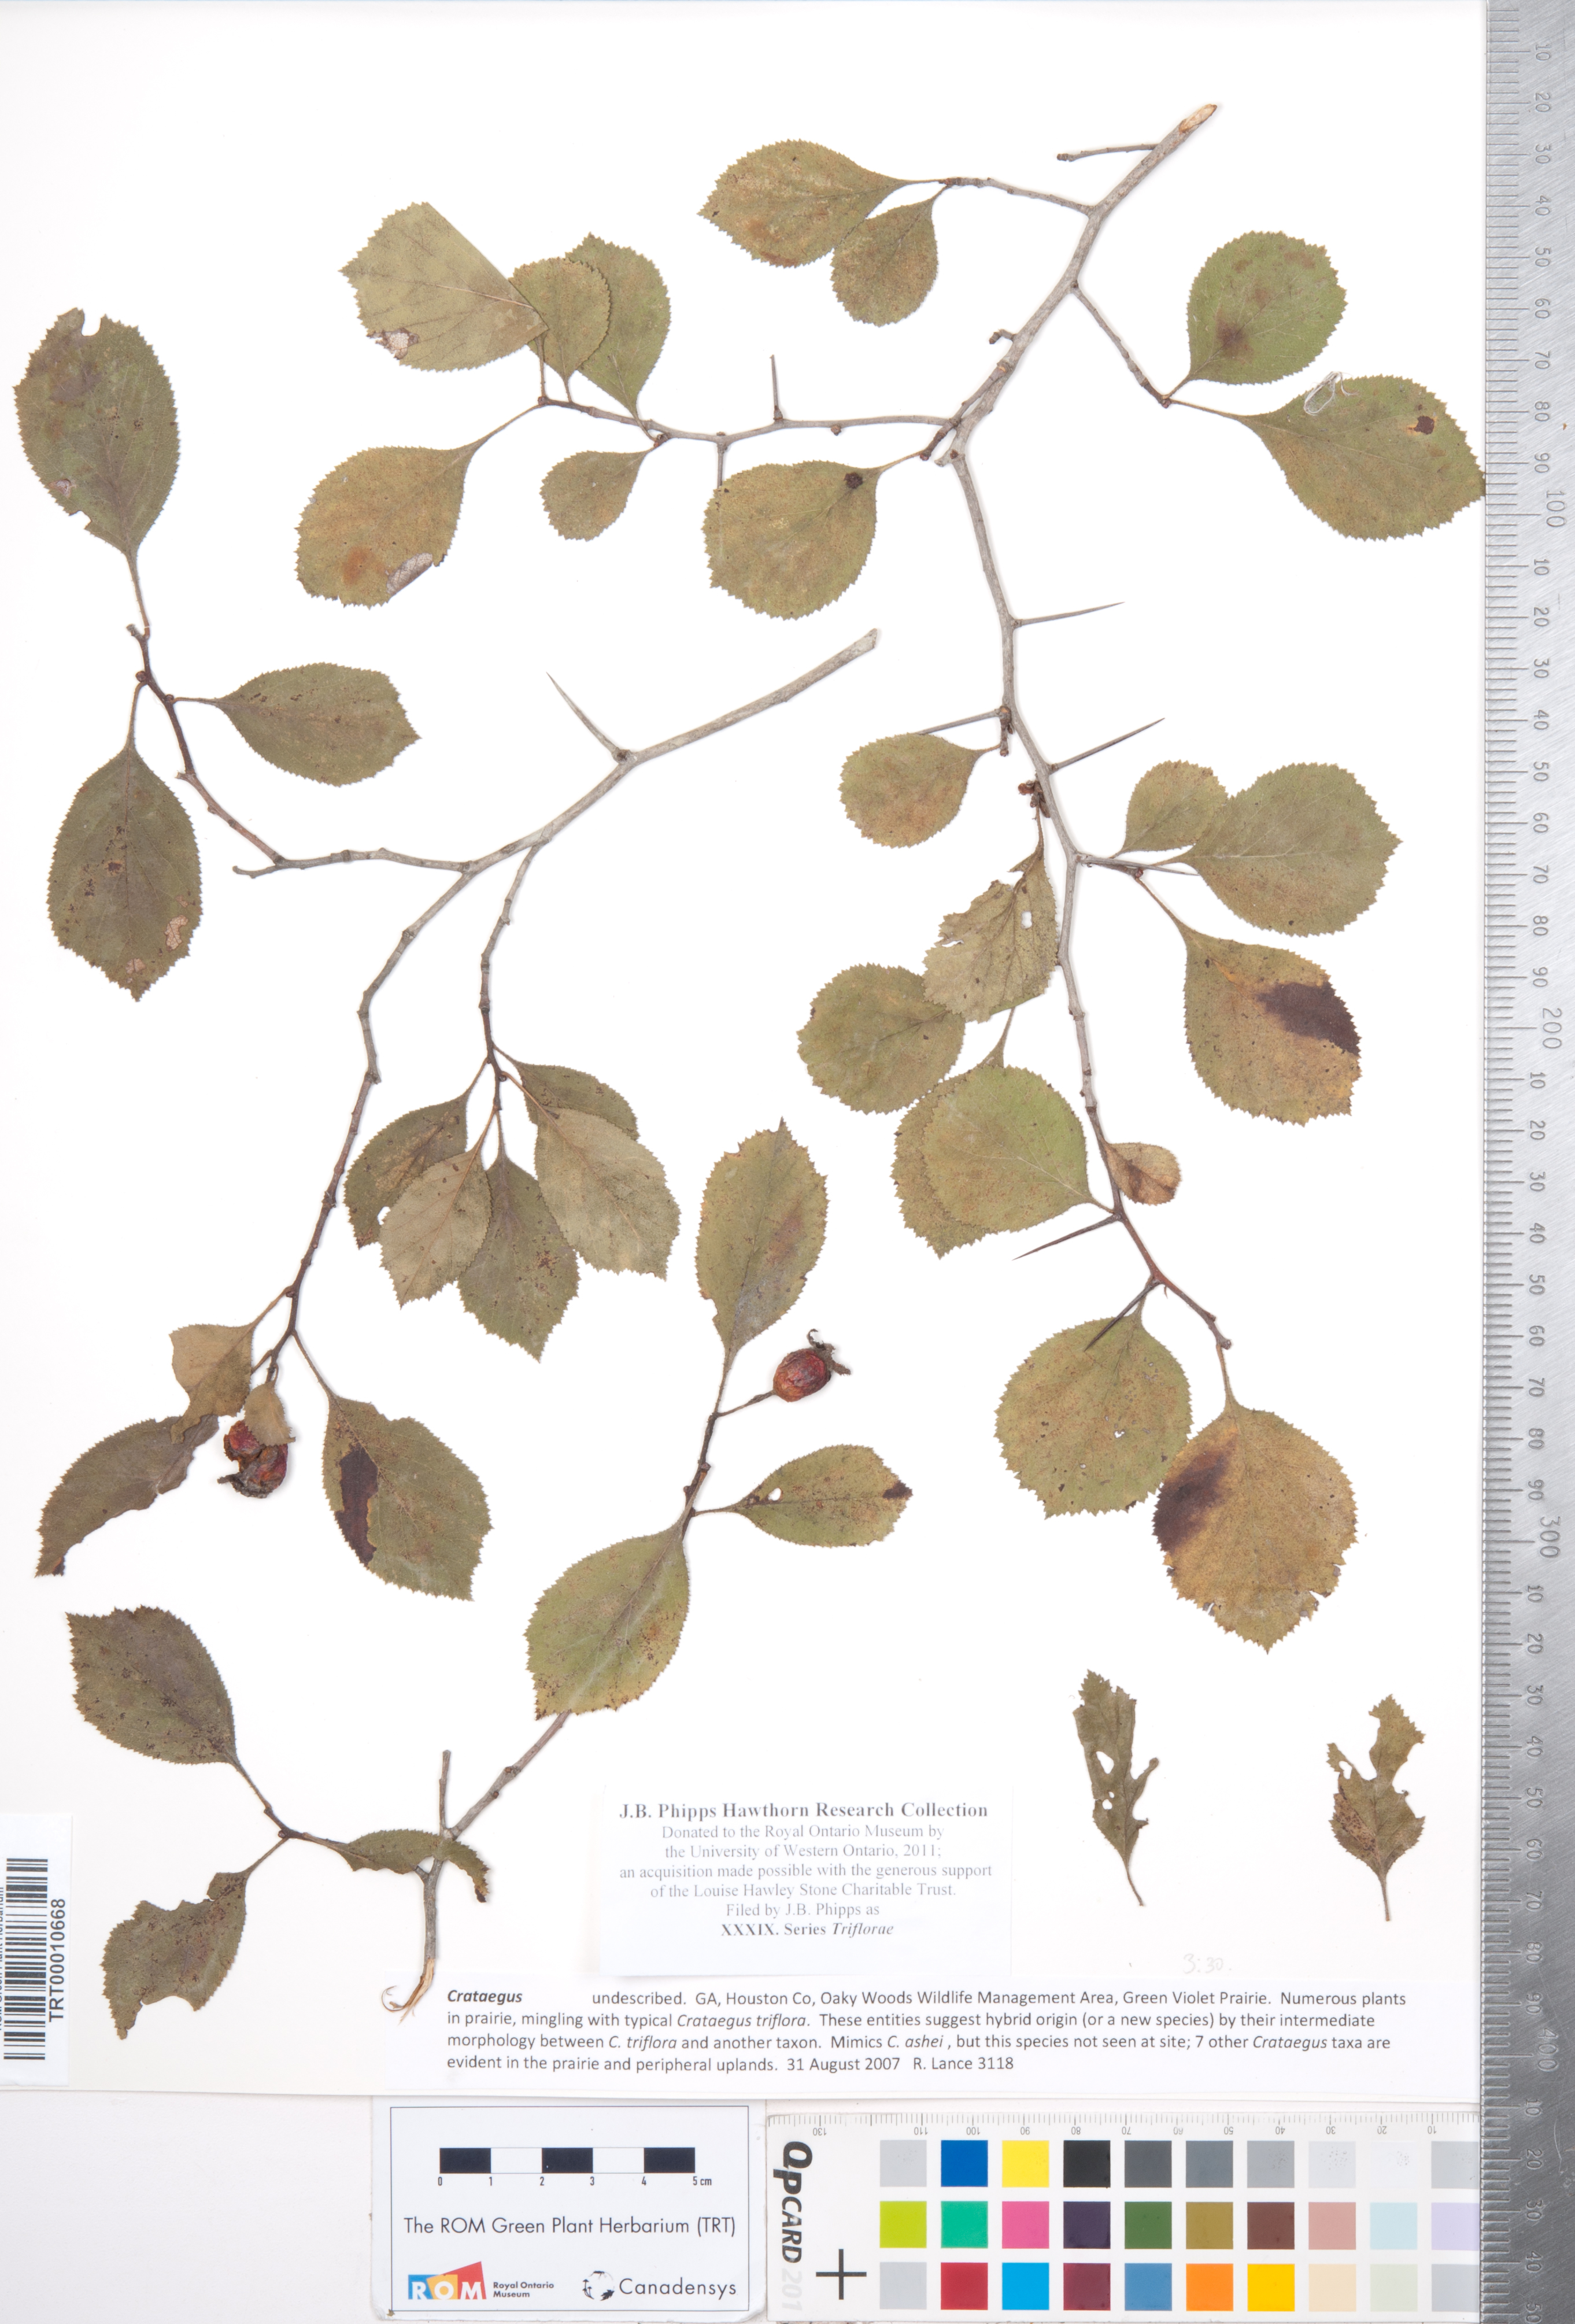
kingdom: Plantae
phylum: Tracheophyta
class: Magnoliopsida
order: Rosales
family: Rosaceae
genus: Crataegus
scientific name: Crataegus
